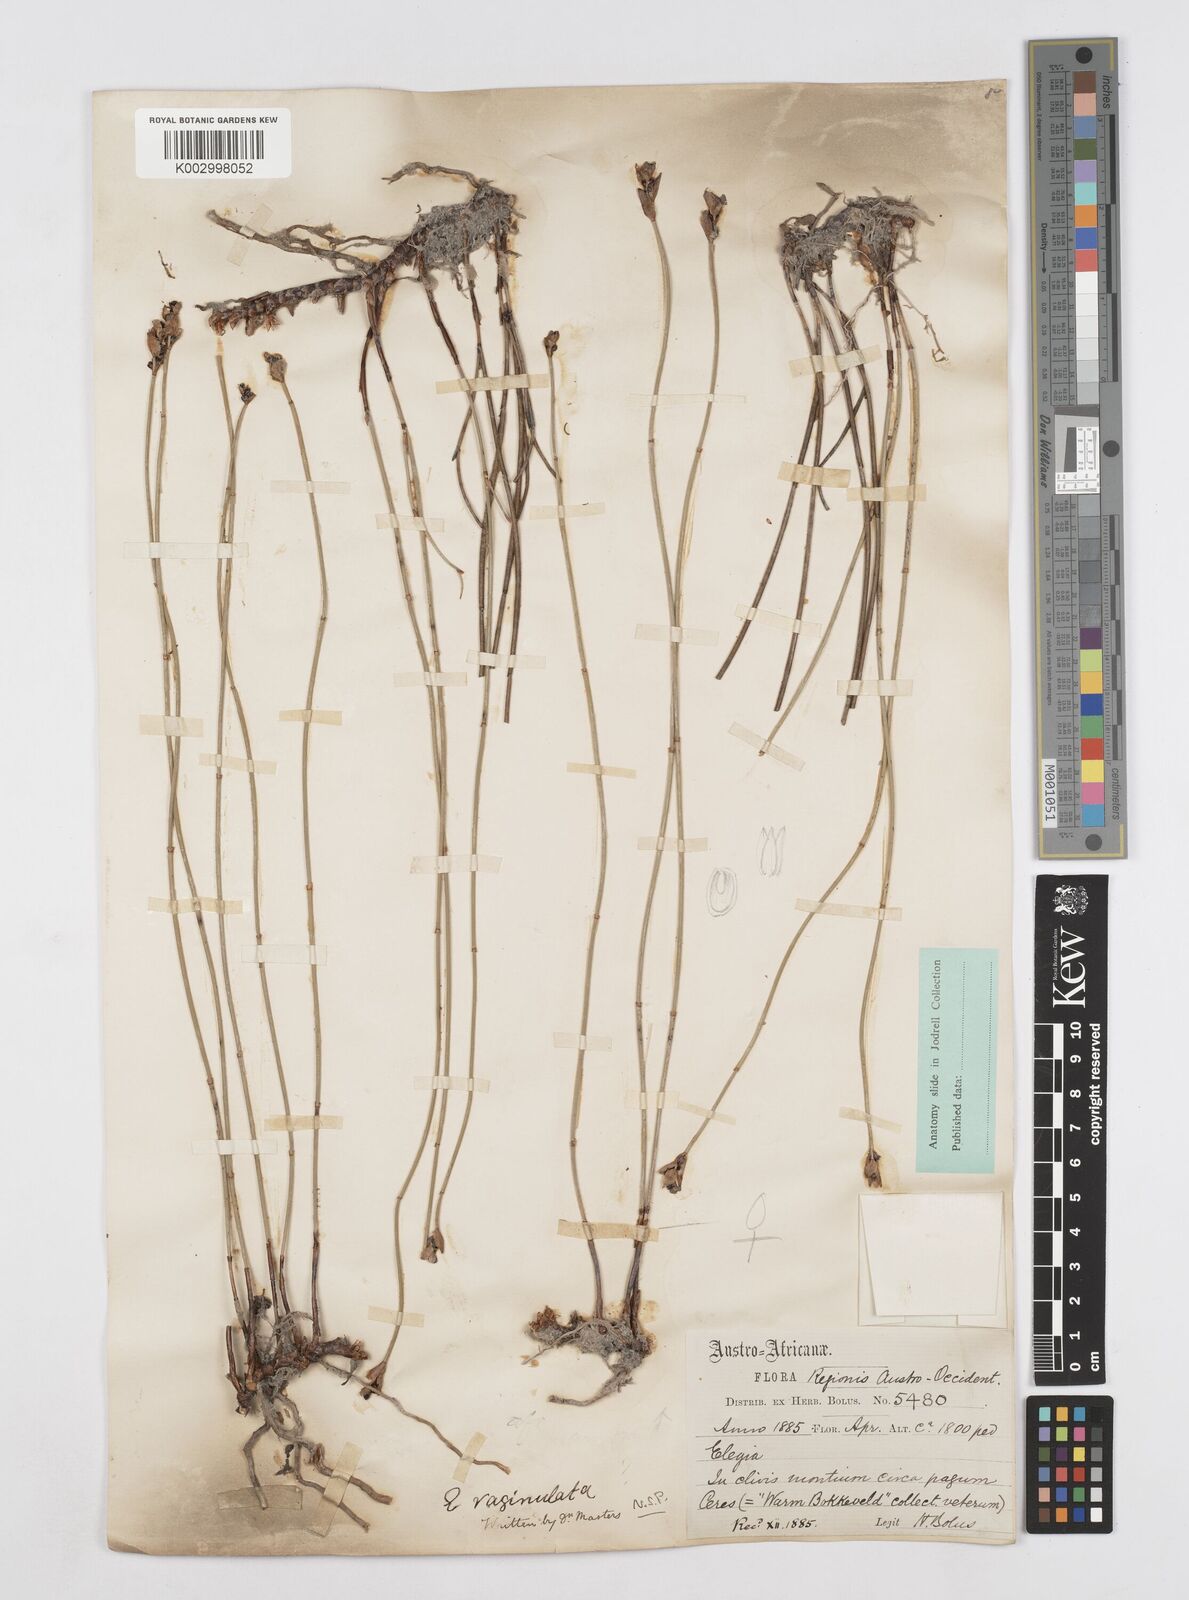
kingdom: Plantae
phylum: Tracheophyta
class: Liliopsida
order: Poales
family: Restionaceae
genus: Elegia
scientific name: Elegia vaginulata
